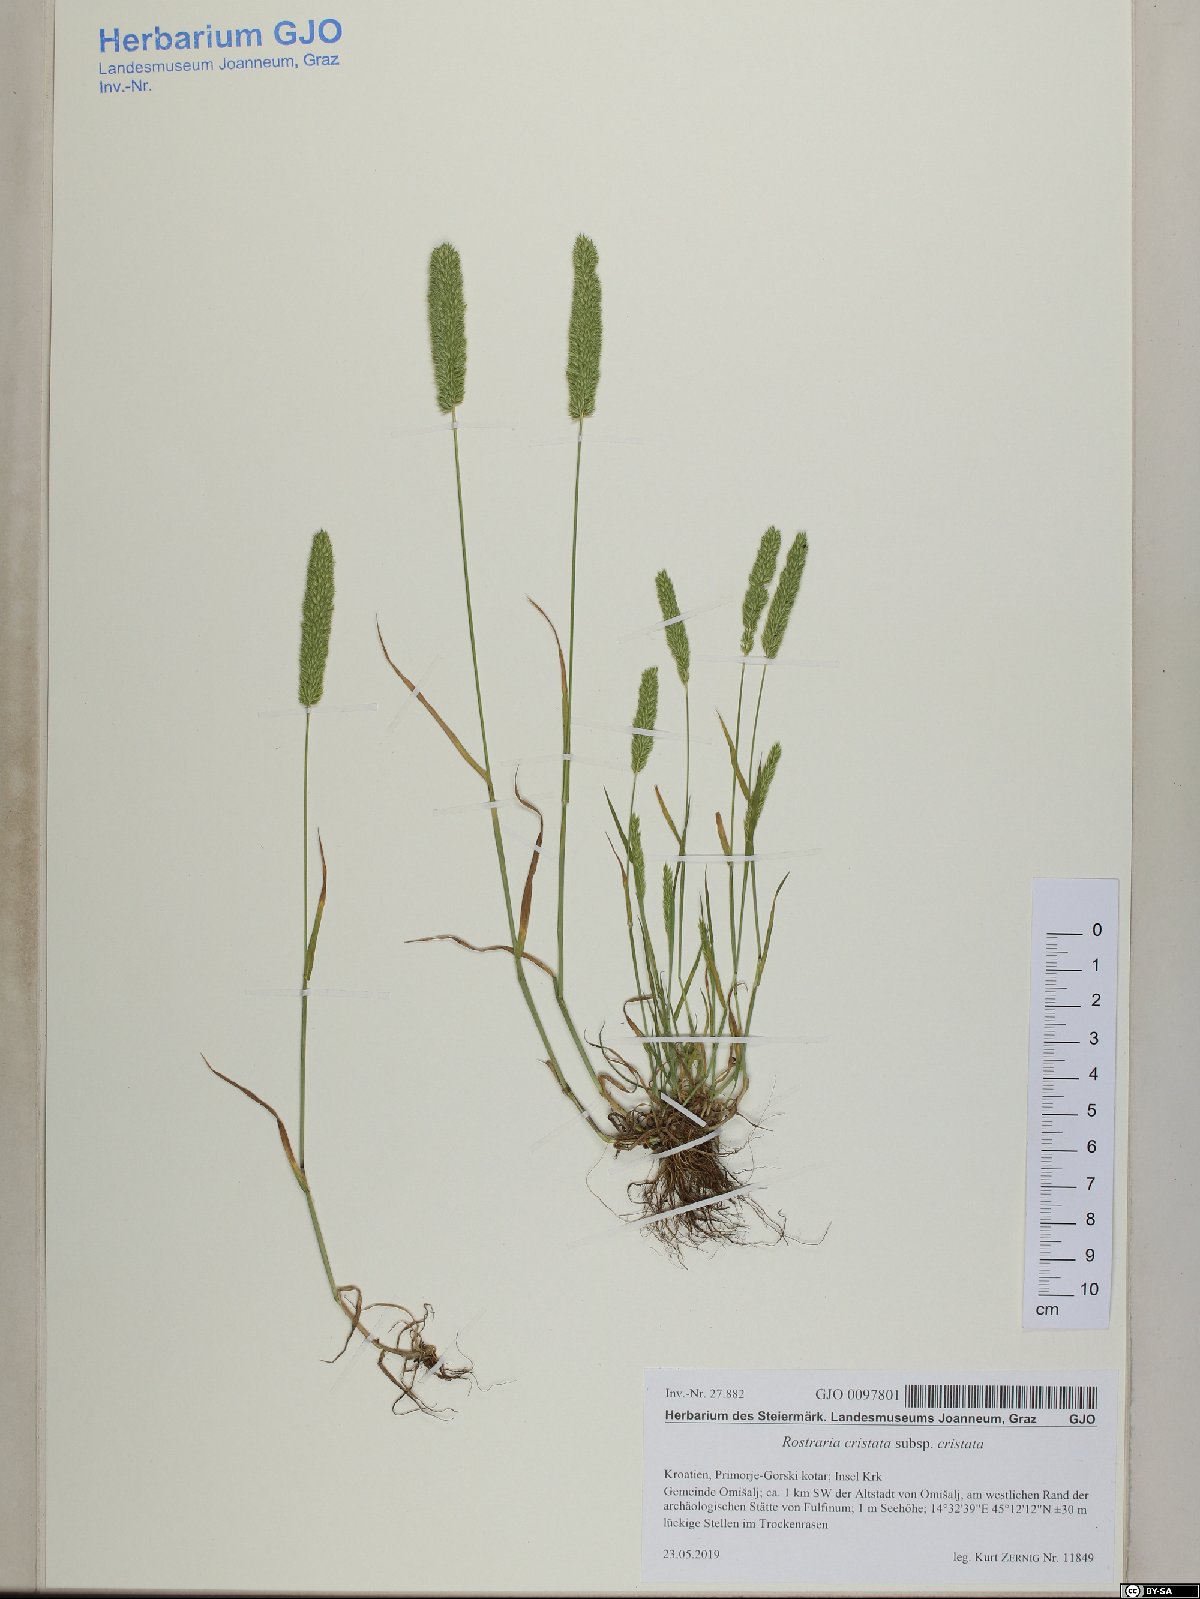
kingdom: Plantae
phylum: Tracheophyta
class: Liliopsida
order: Poales
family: Poaceae
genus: Rostraria
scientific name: Rostraria cristata
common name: Mediterranean hair-grass
